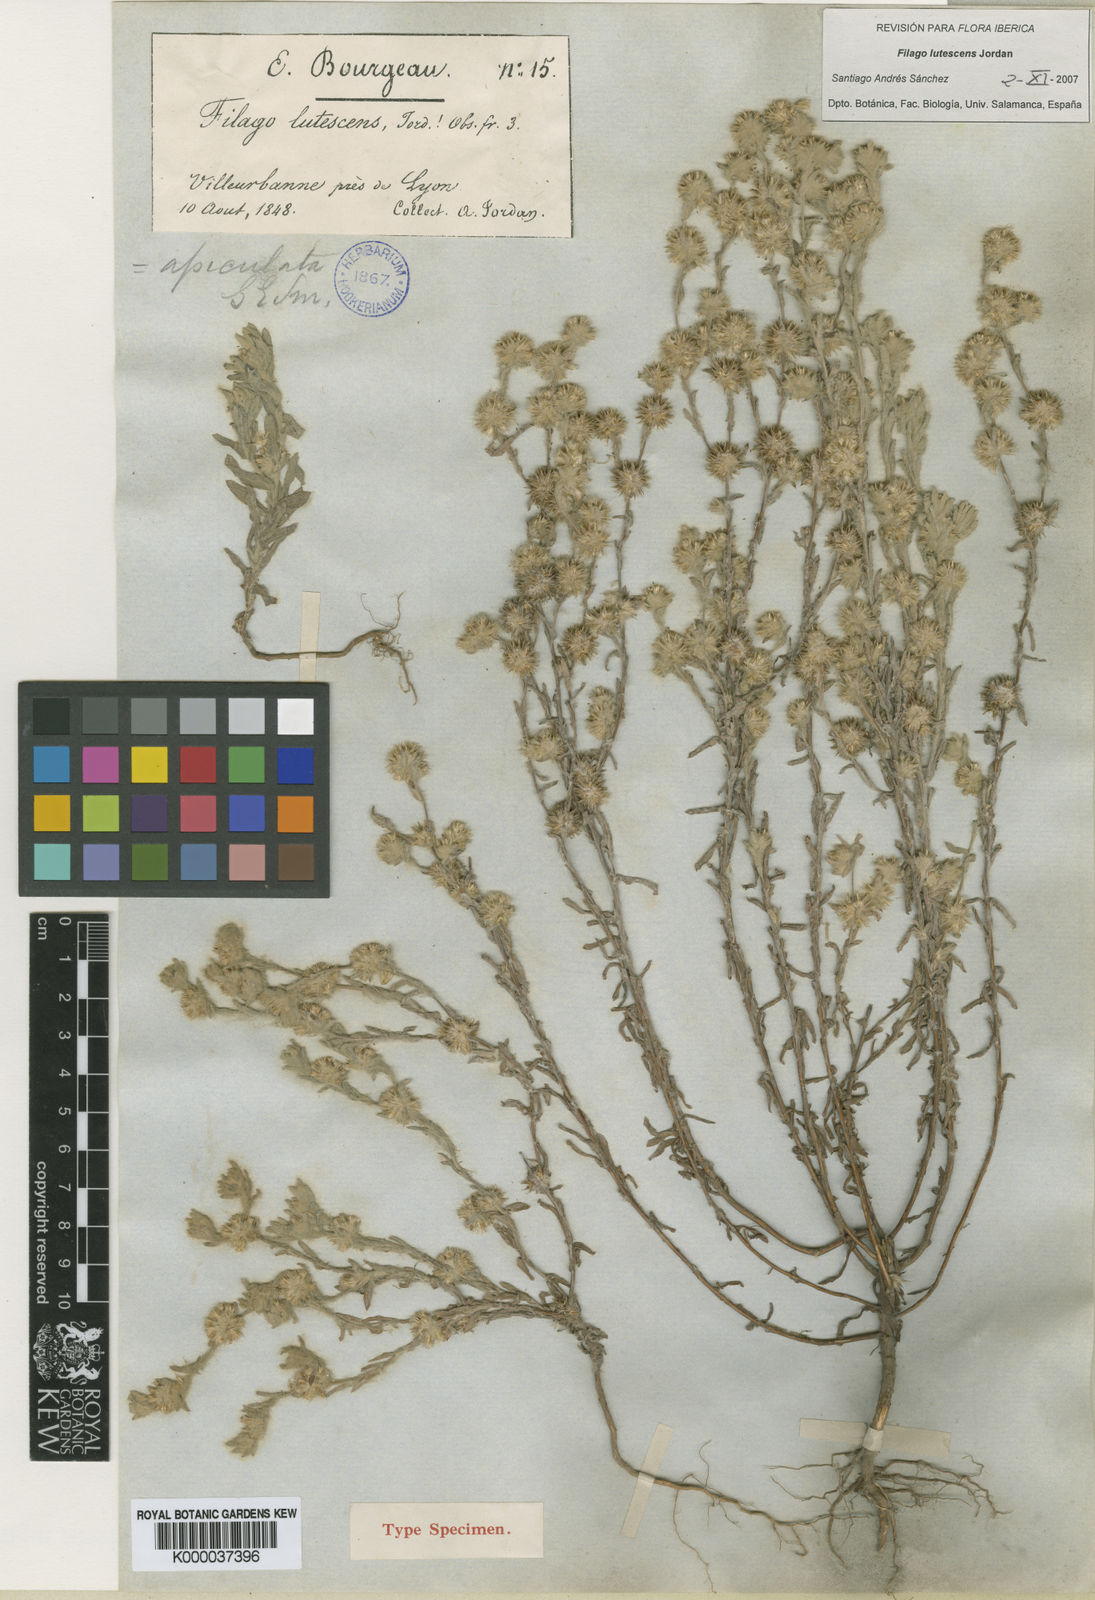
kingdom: Plantae
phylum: Tracheophyta
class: Magnoliopsida
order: Asterales
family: Asteraceae
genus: Filago
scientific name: Filago lutescens
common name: Red-tipped cudweed
